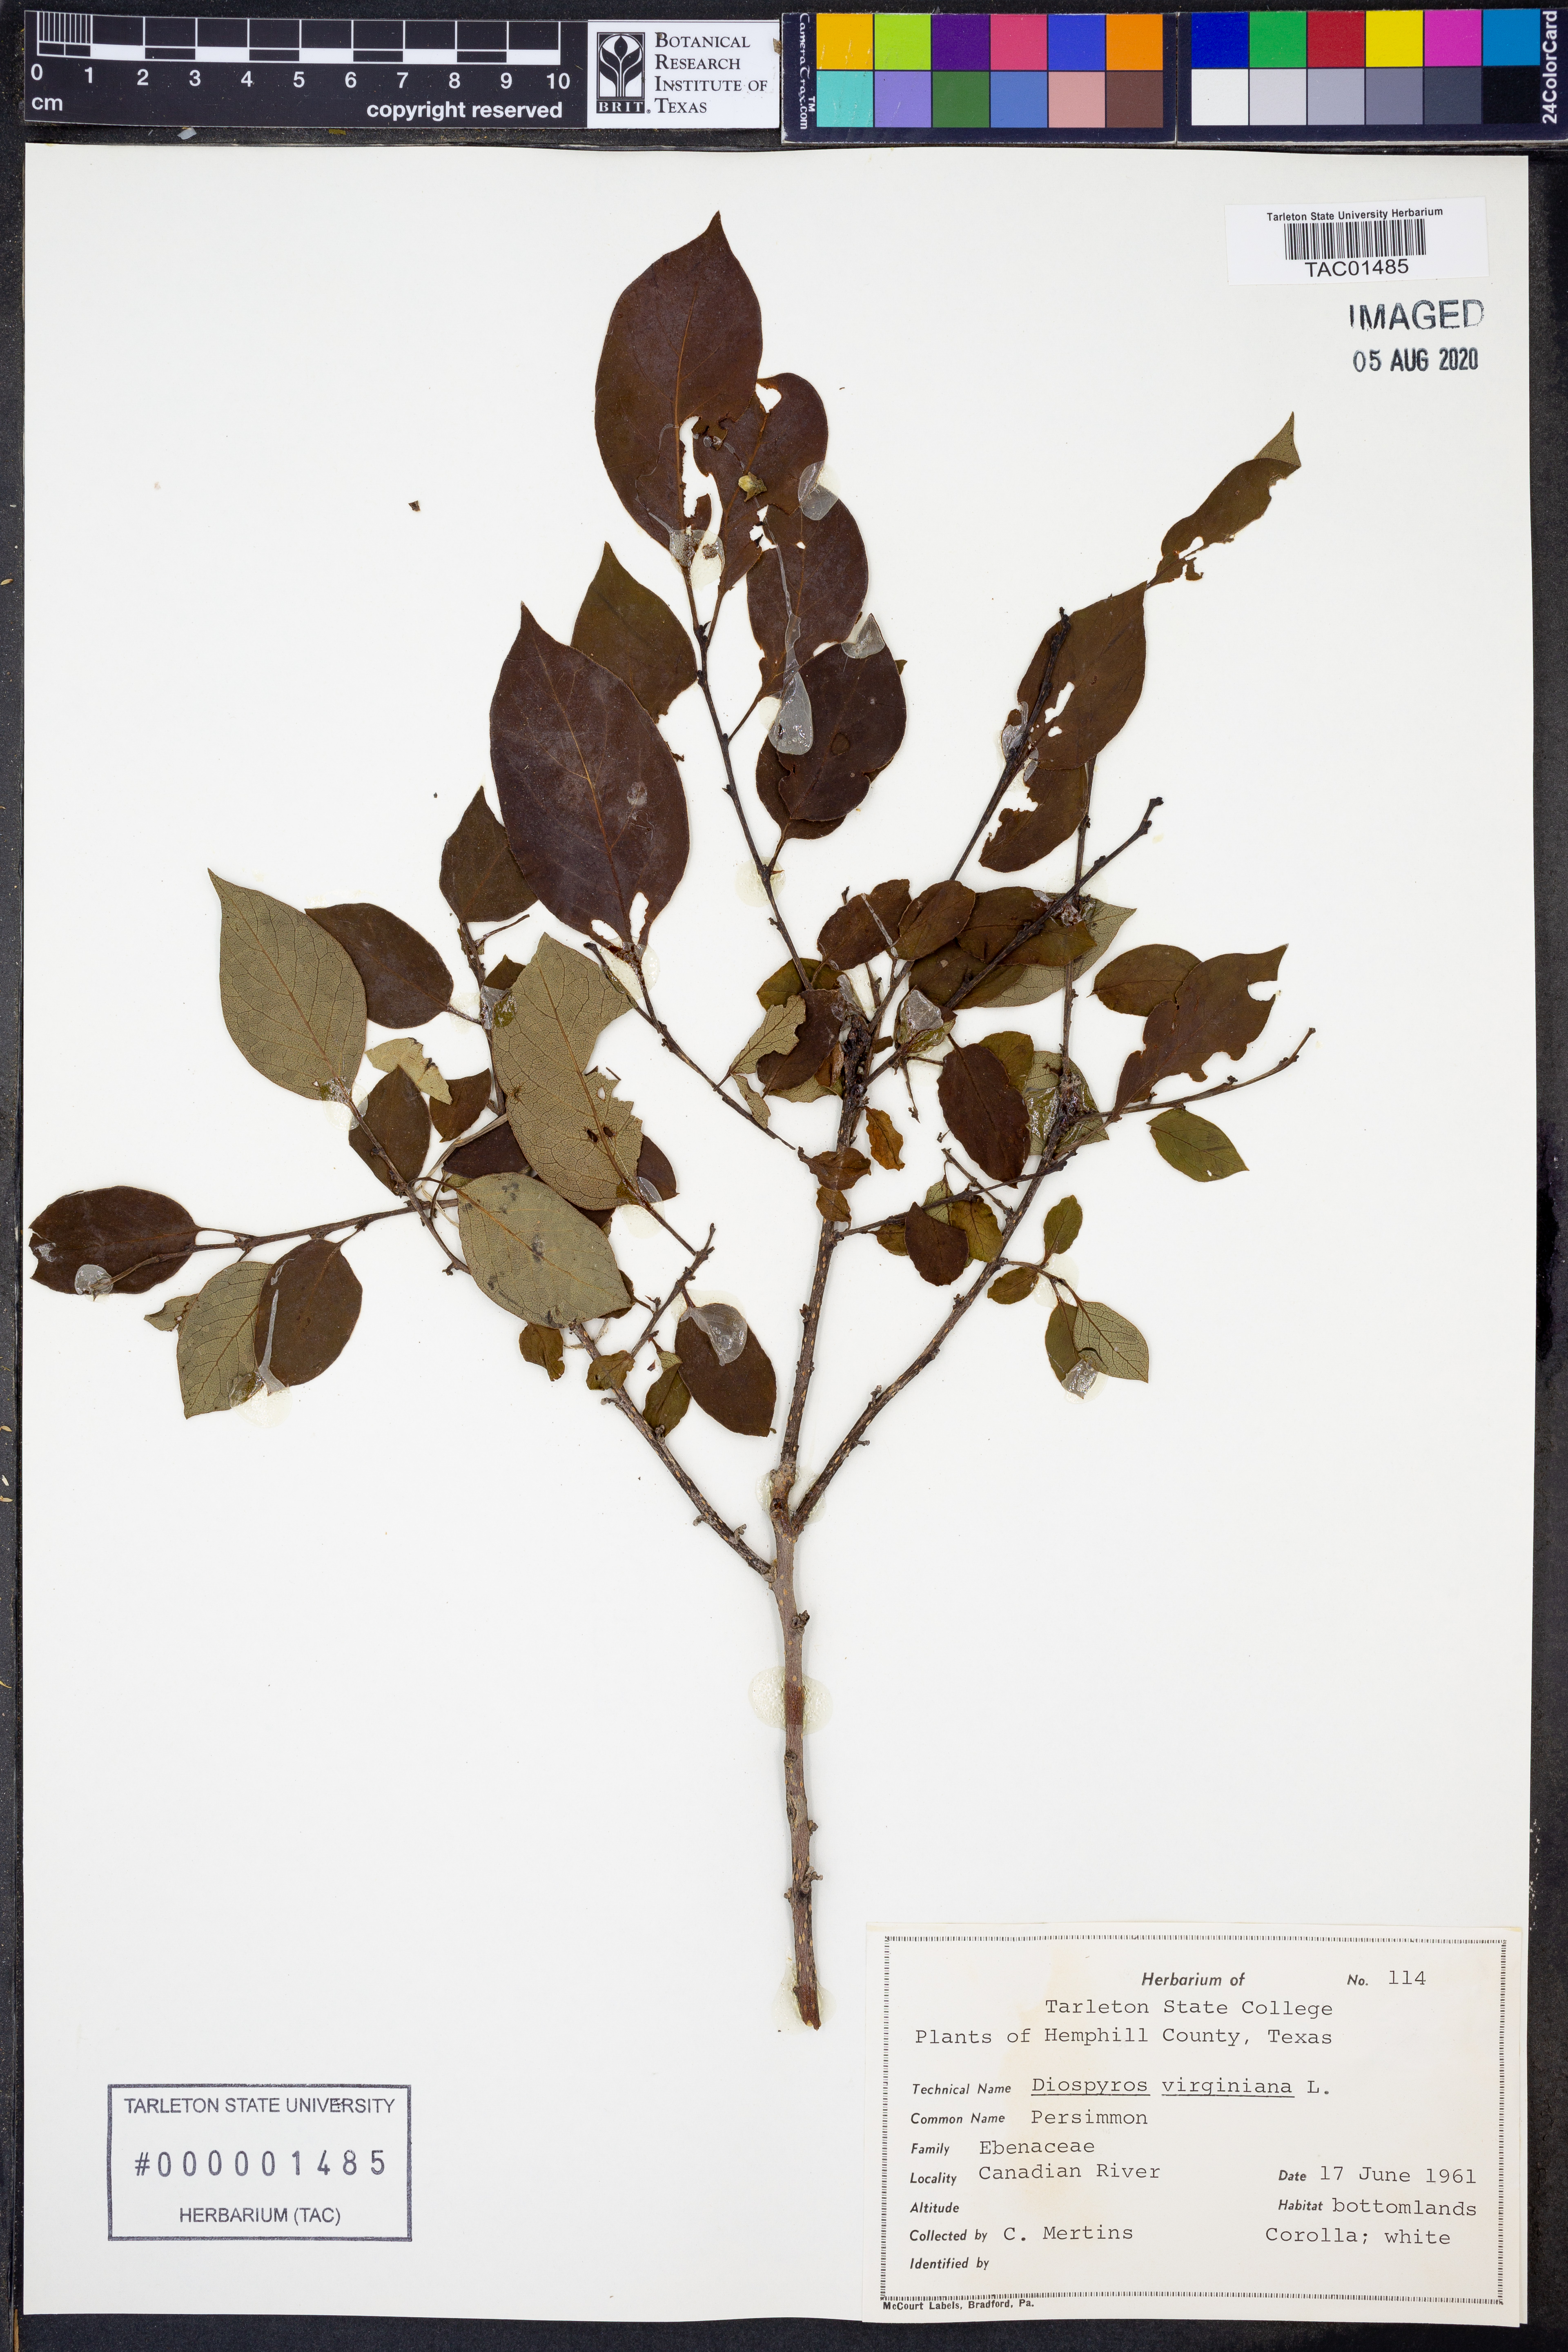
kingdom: Plantae
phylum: Tracheophyta
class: Magnoliopsida
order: Ericales
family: Ebenaceae
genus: Diospyros
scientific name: Diospyros virginiana
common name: Persimmon
